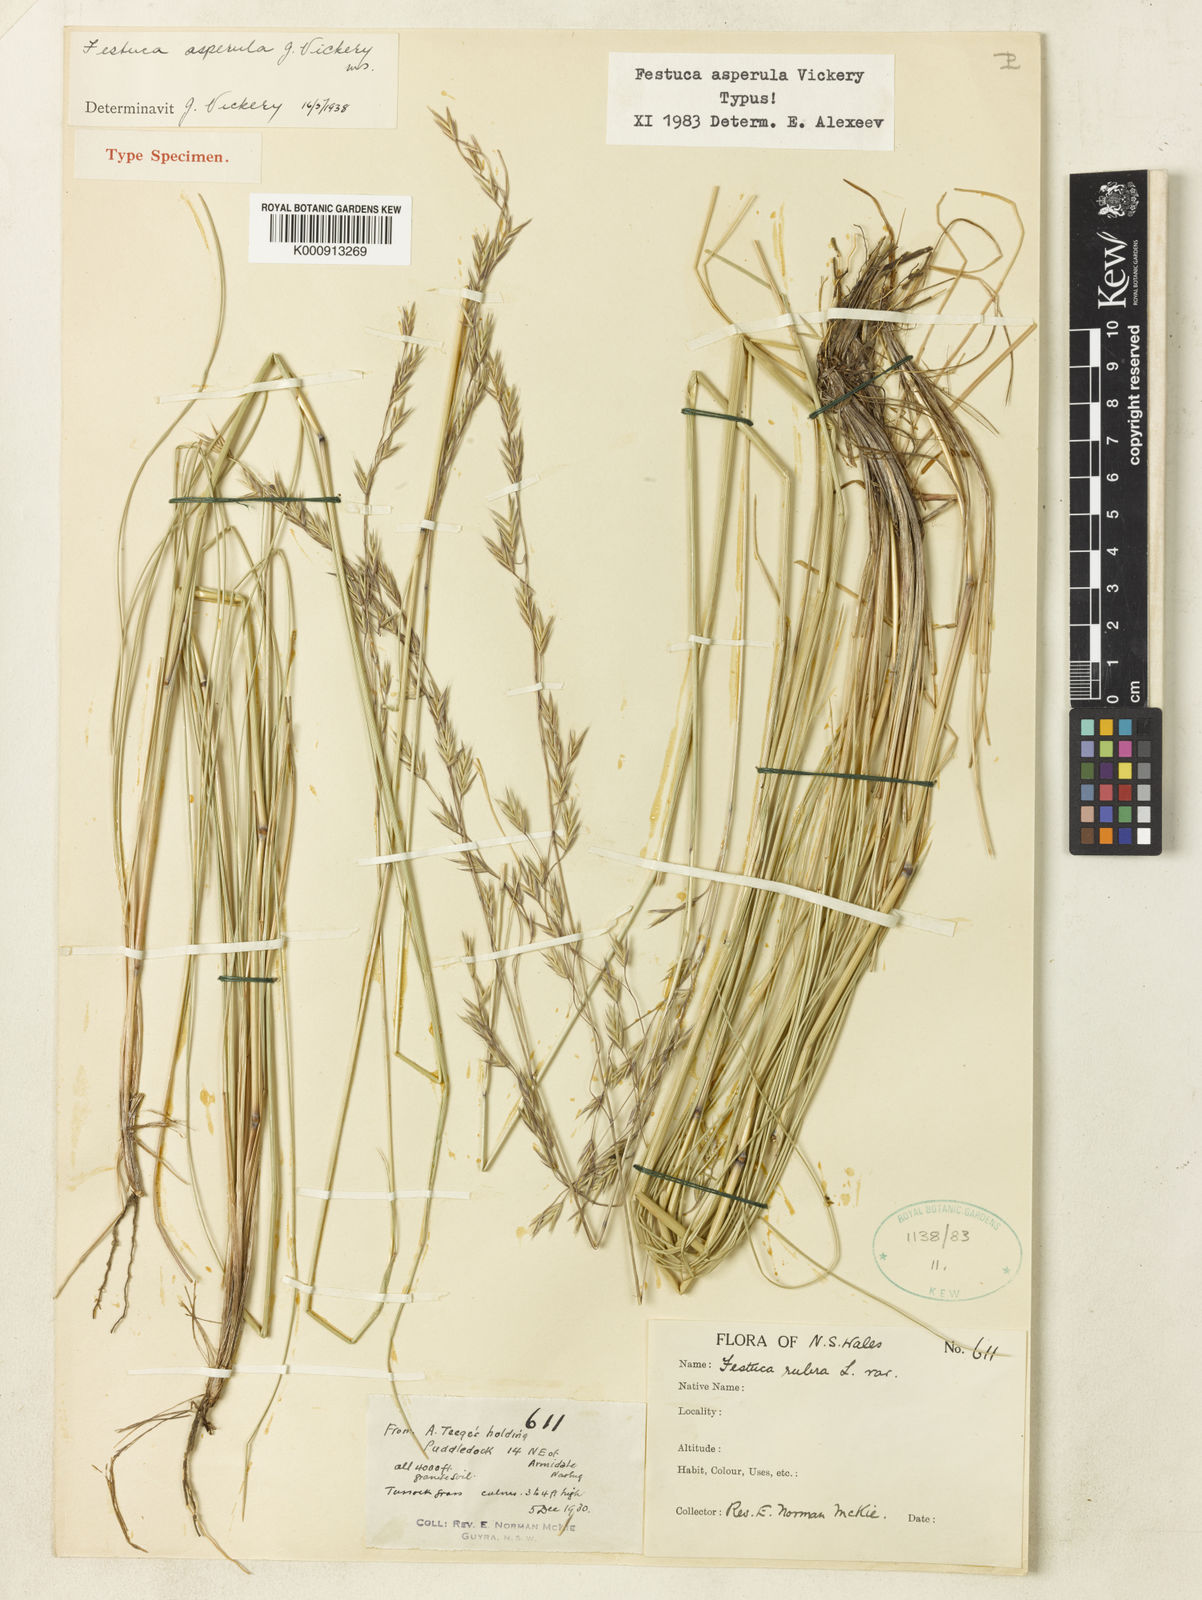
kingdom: Plantae
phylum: Tracheophyta
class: Liliopsida
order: Poales
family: Poaceae
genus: Festuca
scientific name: Festuca asperula
